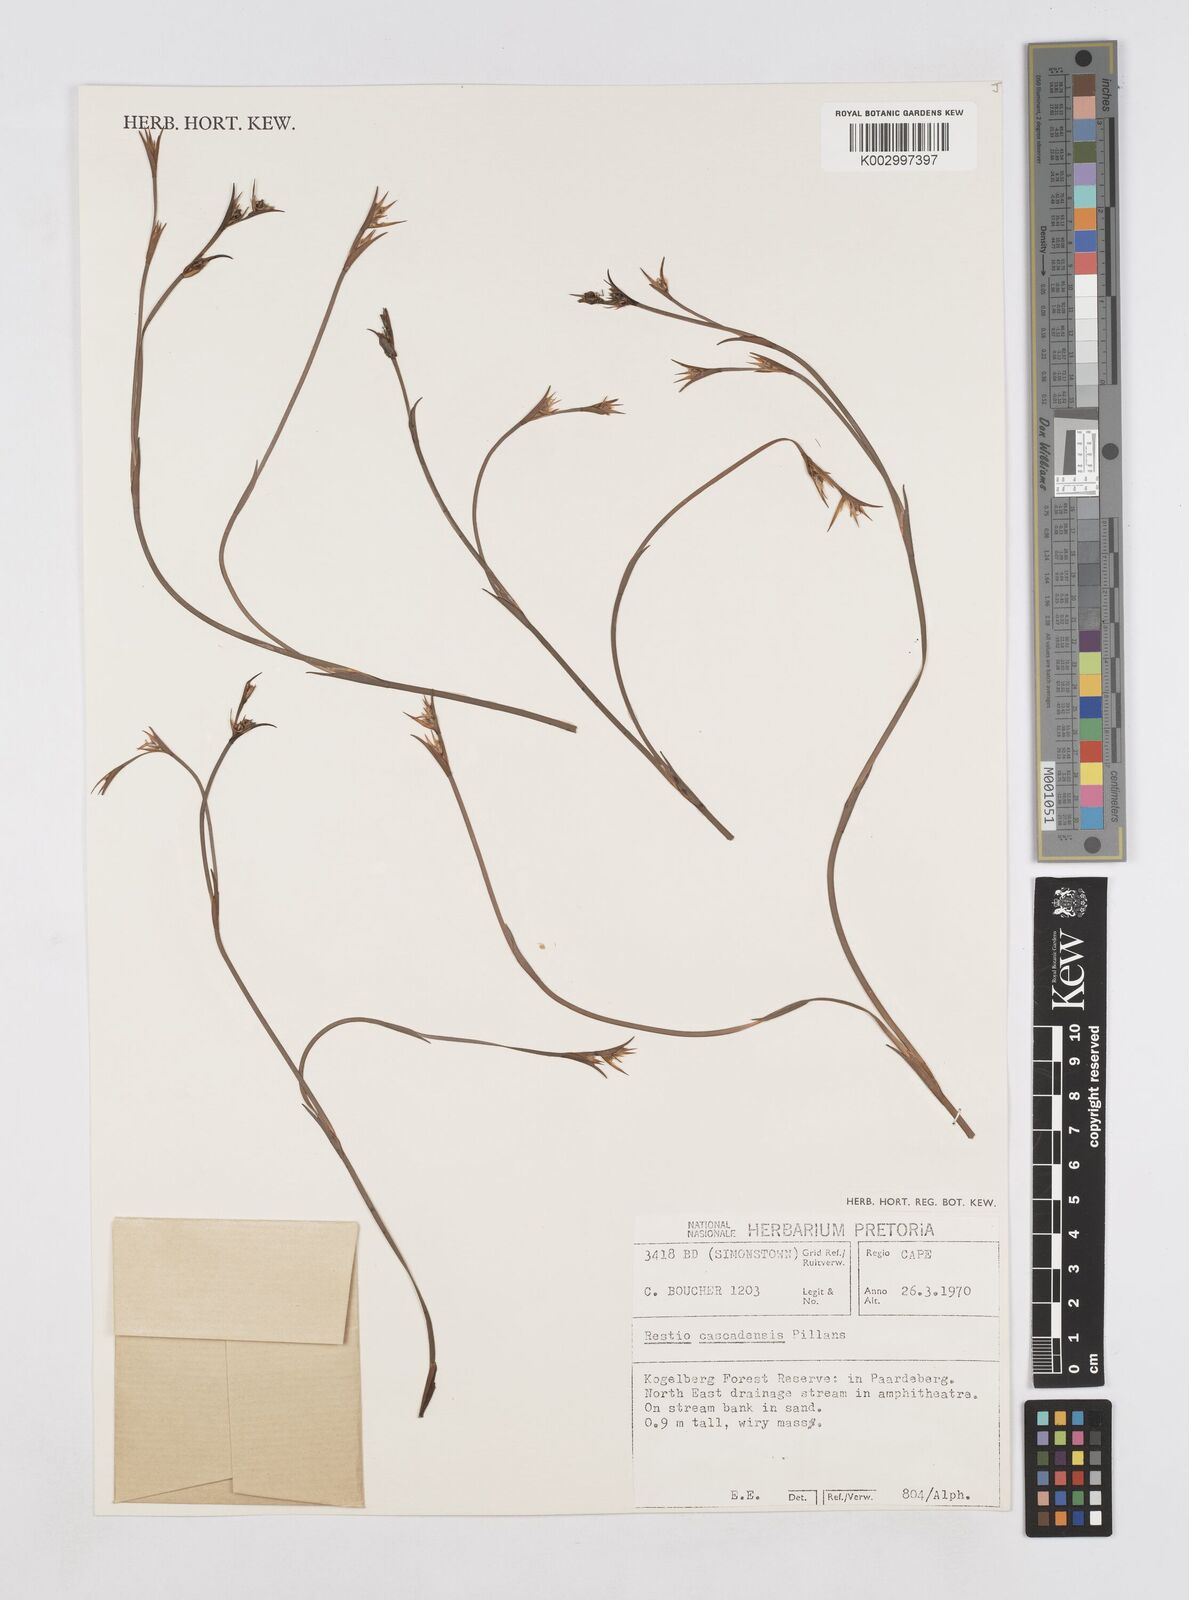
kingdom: Plantae
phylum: Tracheophyta
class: Liliopsida
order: Poales
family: Restionaceae
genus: Platycaulos
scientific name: Platycaulos cascadensis
